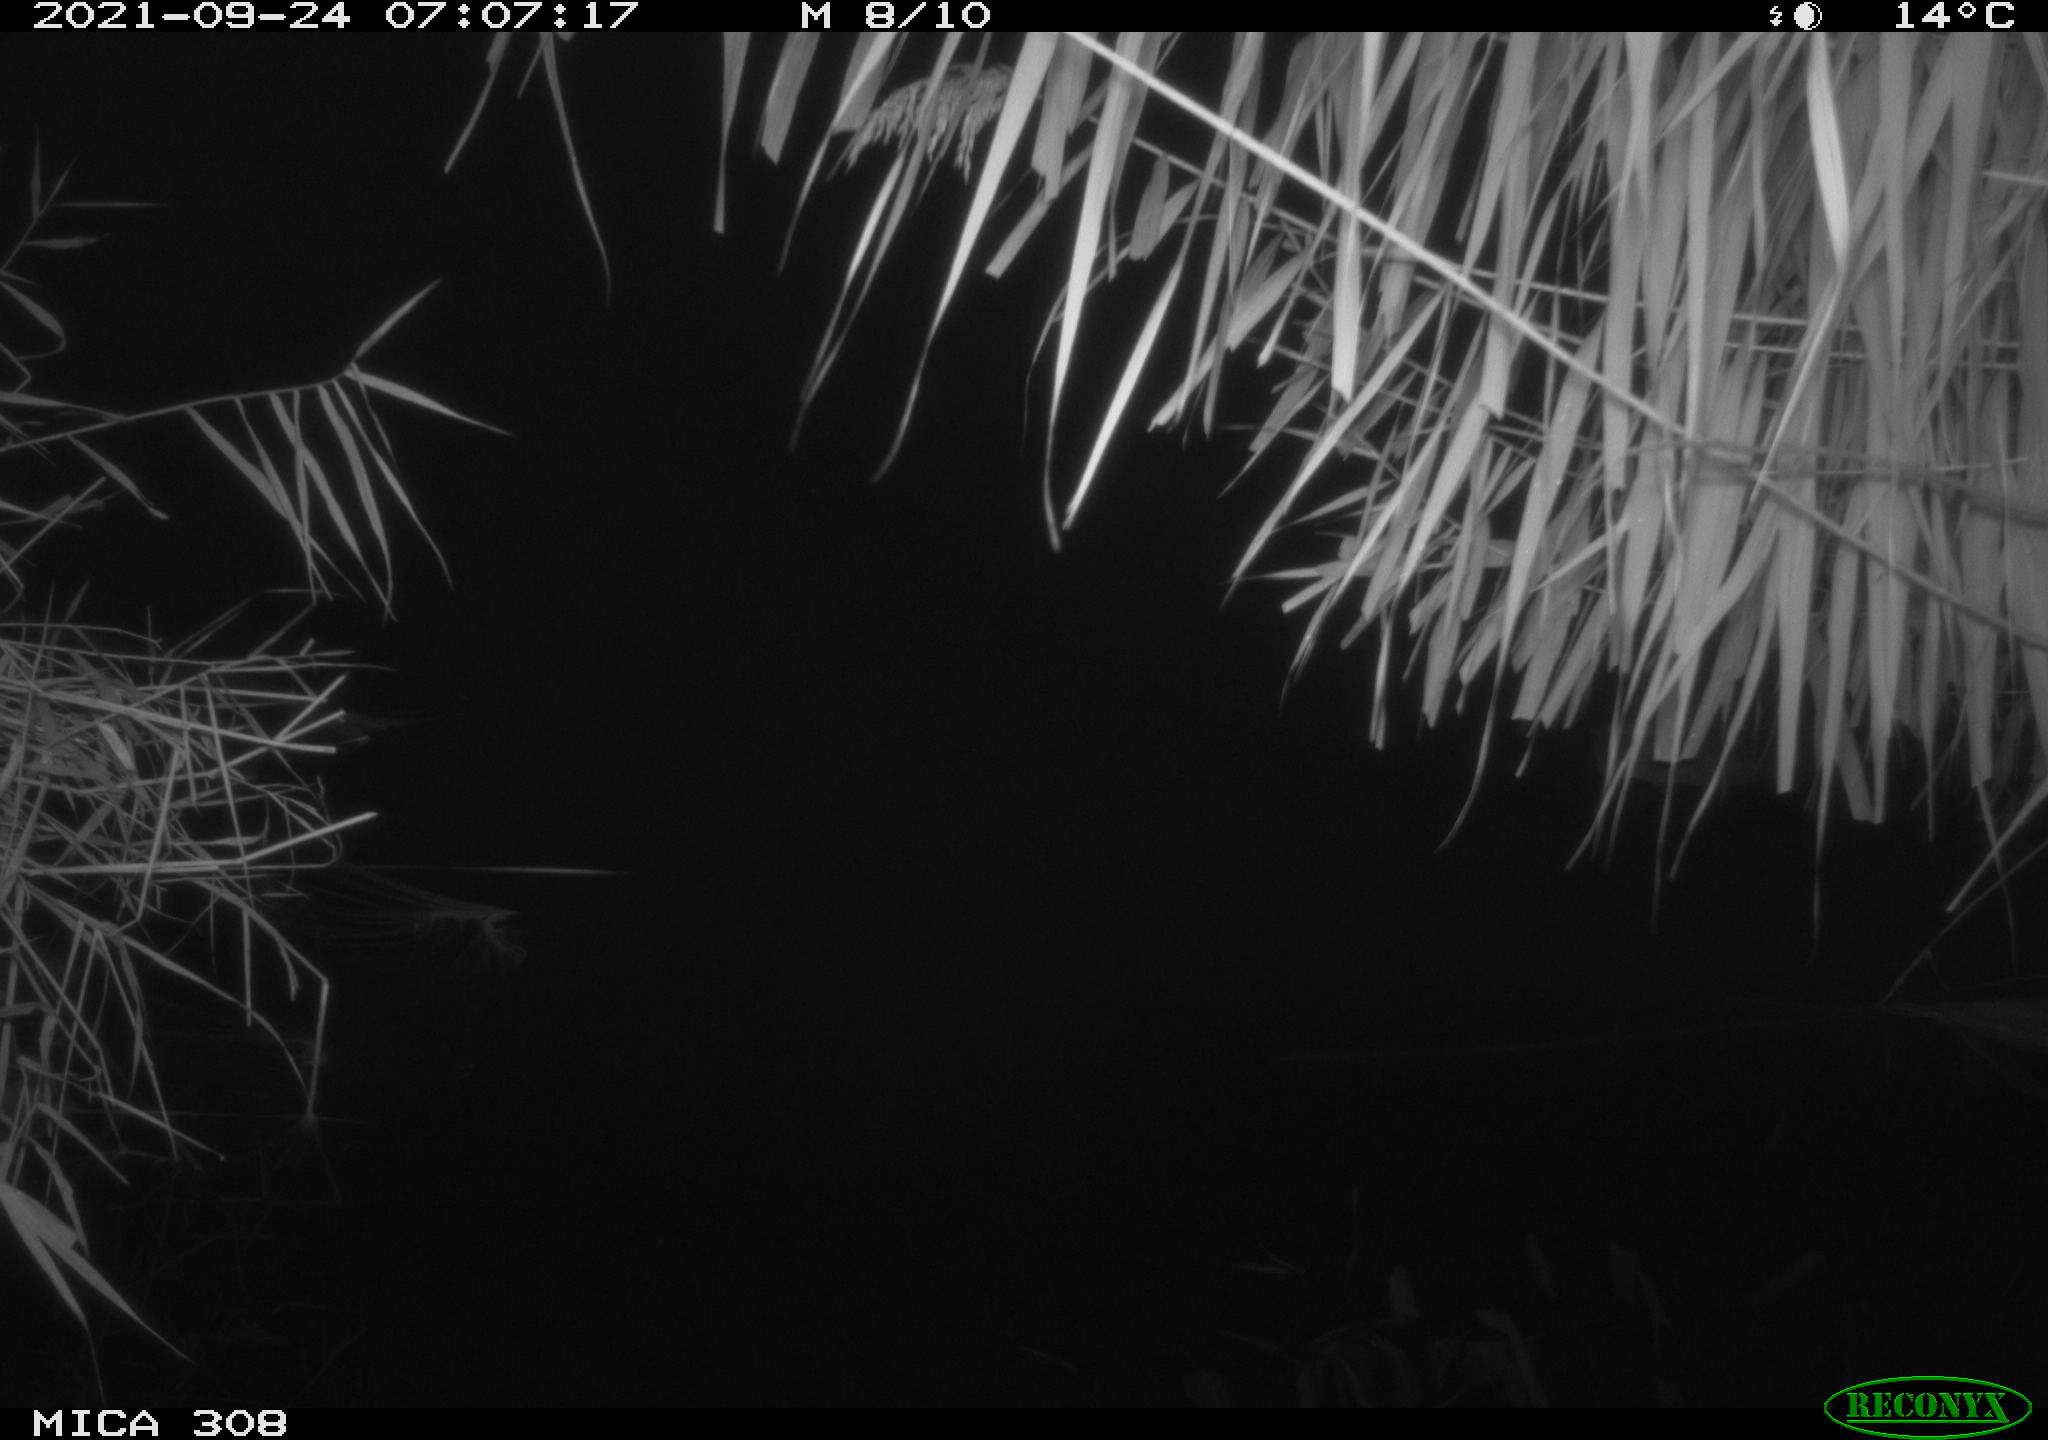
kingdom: Animalia
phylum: Chordata
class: Aves
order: Gruiformes
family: Rallidae
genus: Fulica
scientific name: Fulica atra
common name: Eurasian coot
